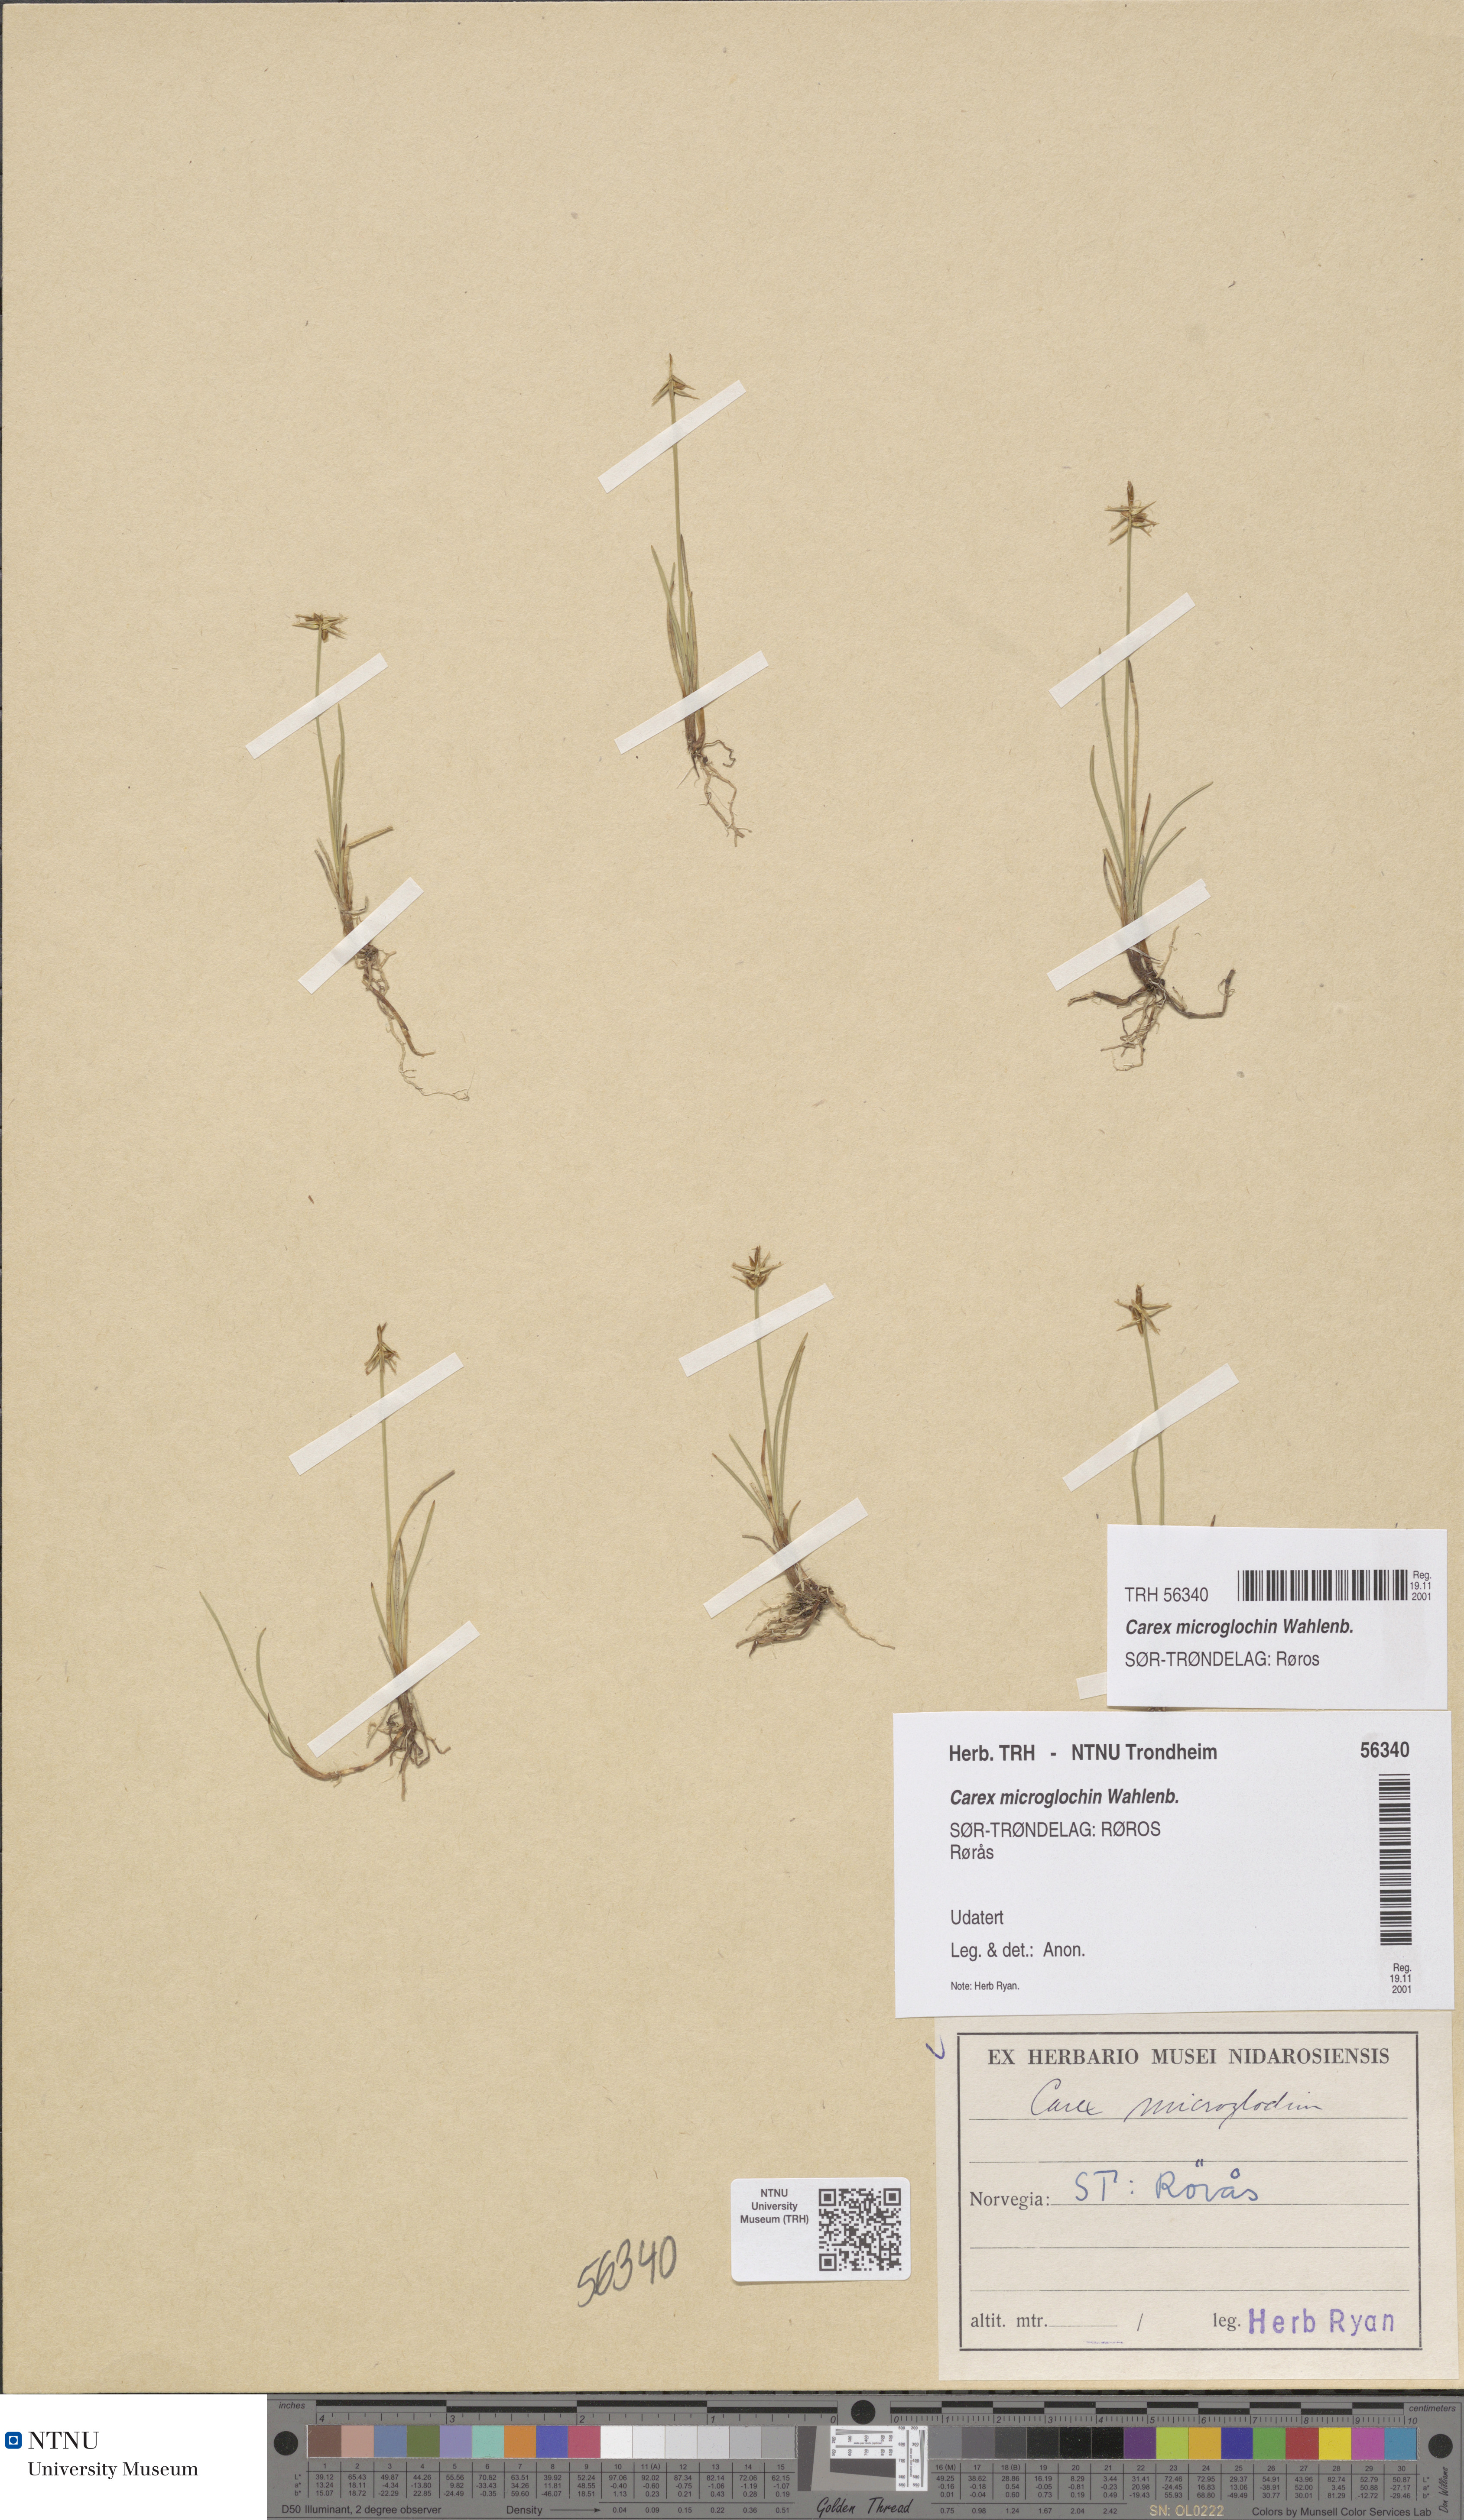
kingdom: Plantae
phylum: Tracheophyta
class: Liliopsida
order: Poales
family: Cyperaceae
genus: Carex
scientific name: Carex microglochin
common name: Bristle sedge
